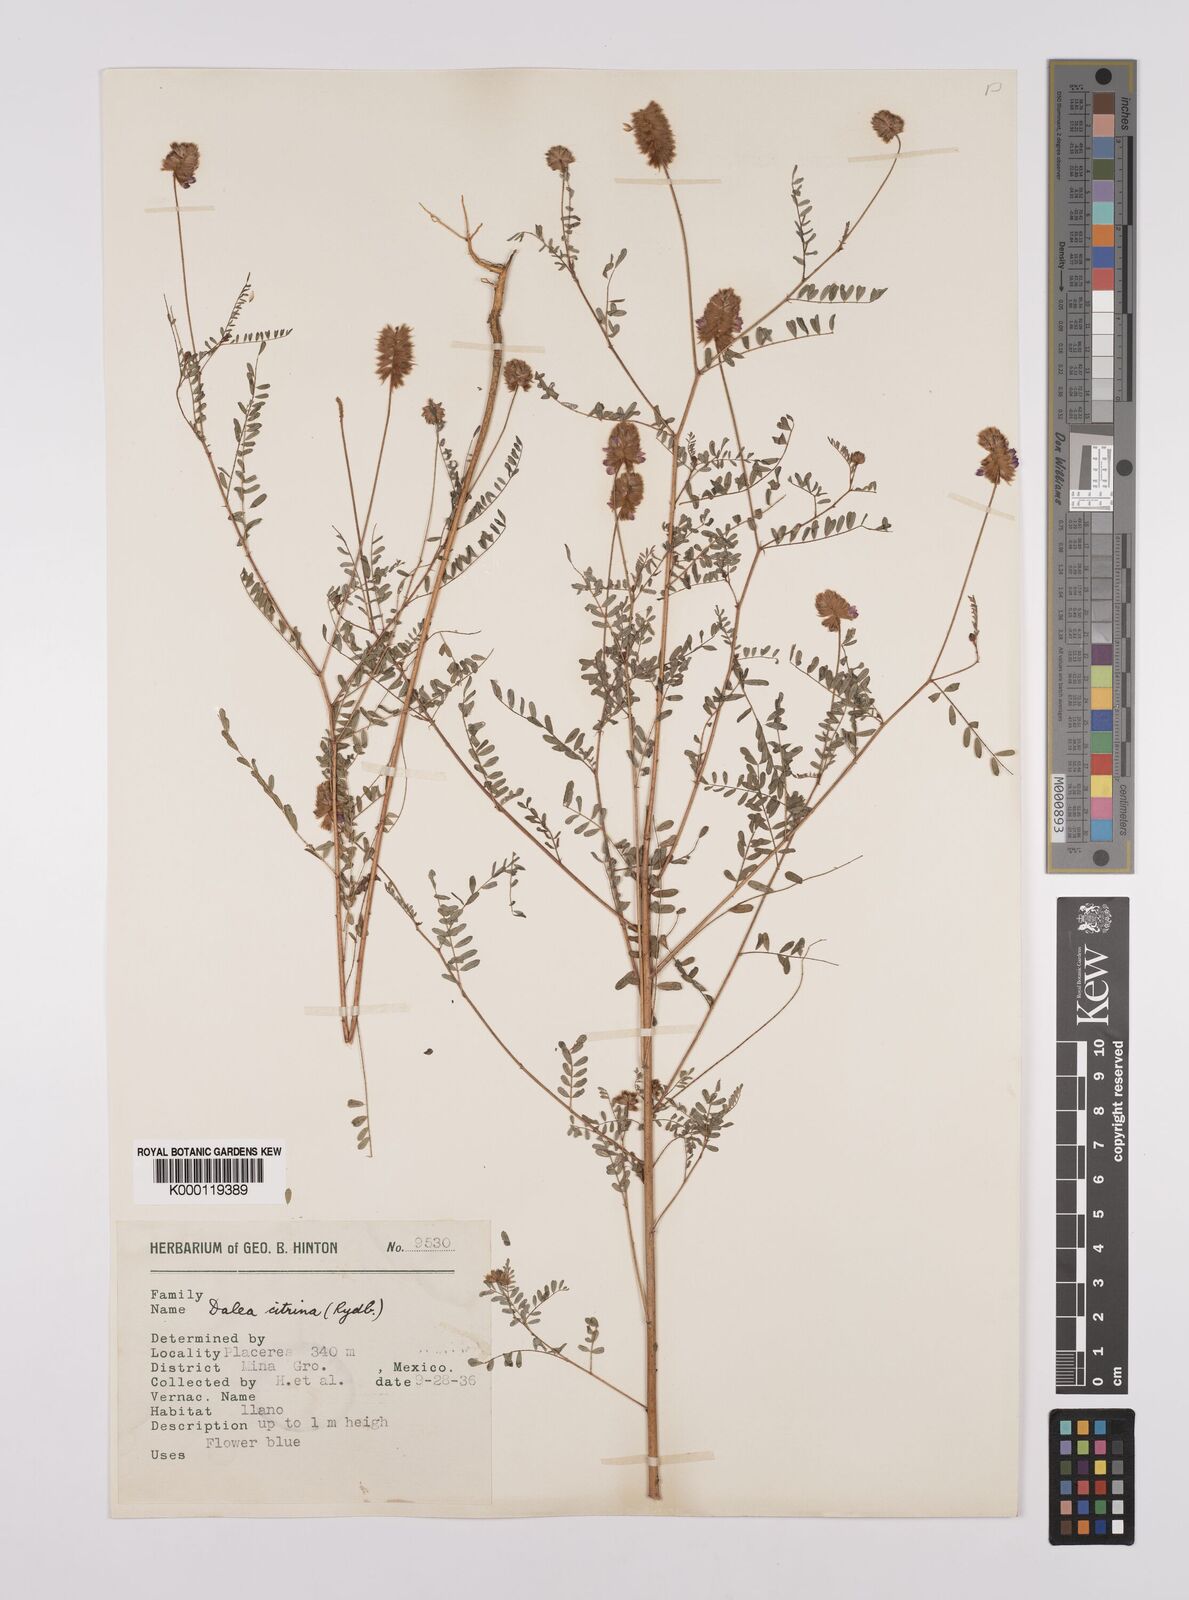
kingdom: Plantae
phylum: Tracheophyta
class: Magnoliopsida
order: Fabales
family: Fabaceae
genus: Dalea
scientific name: Dalea foliolosa
